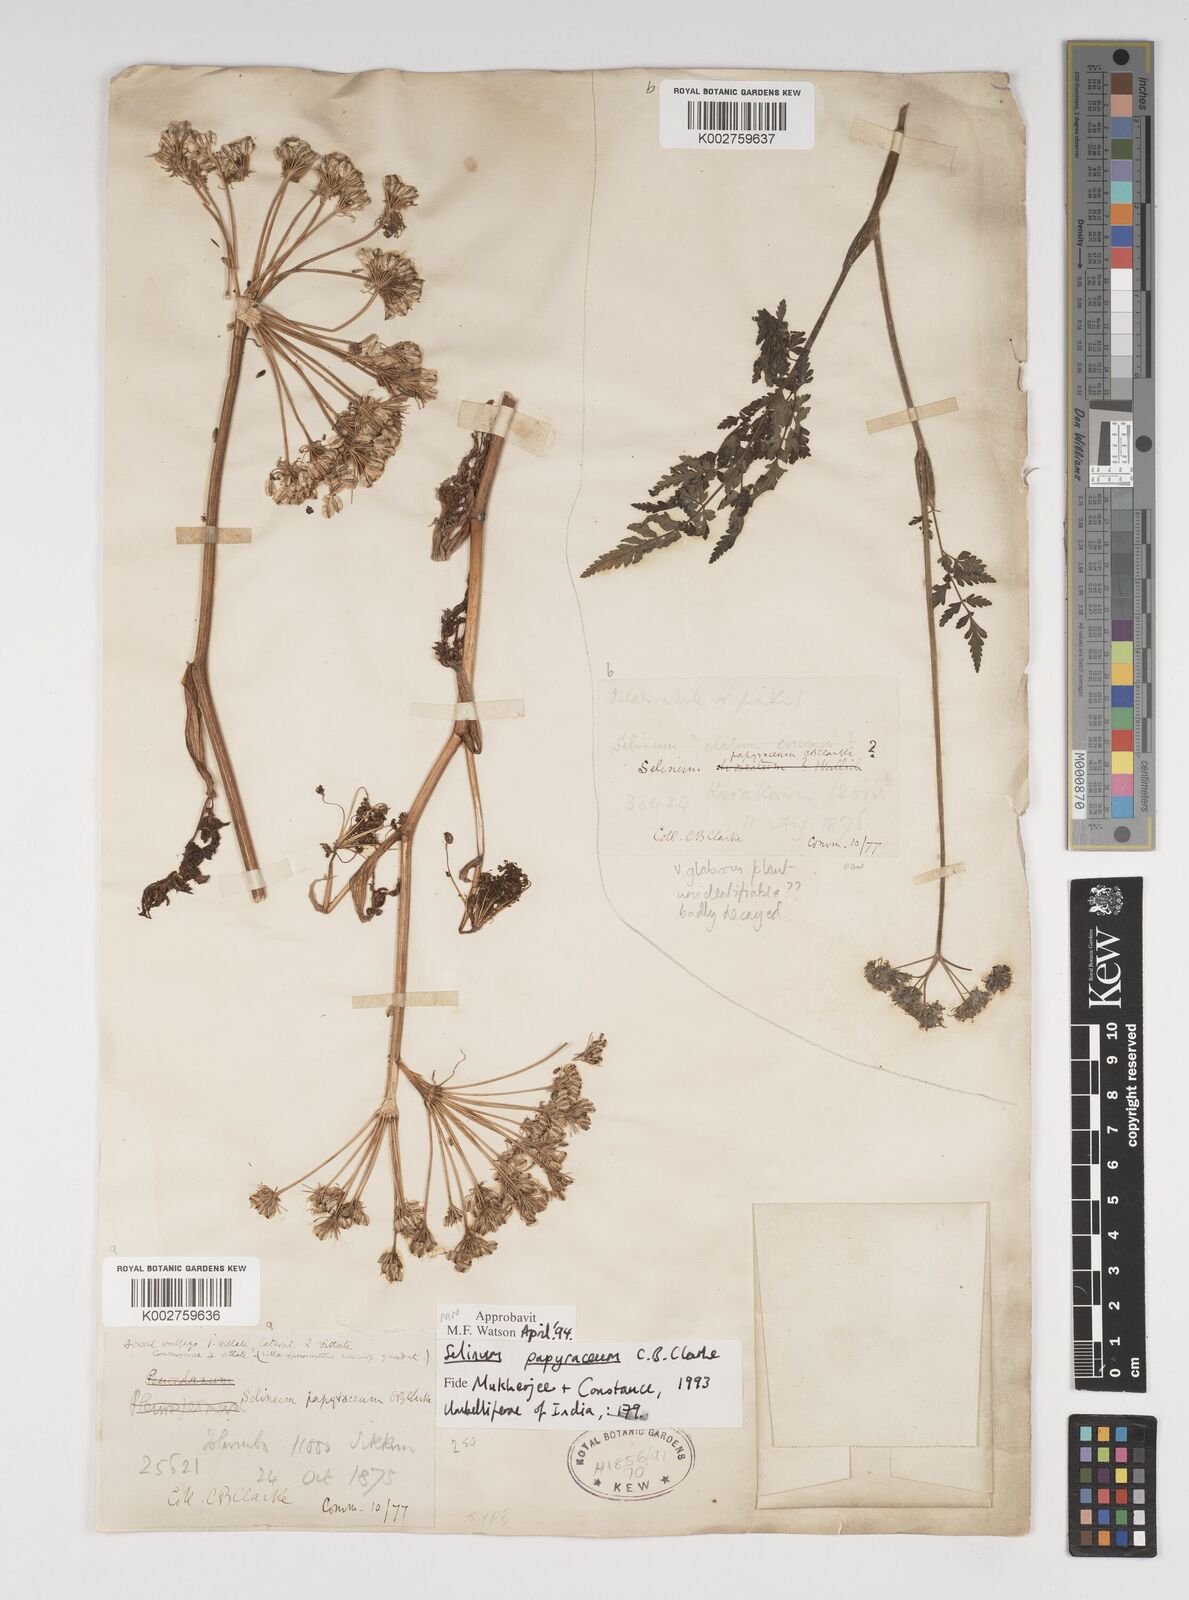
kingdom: Plantae
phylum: Tracheophyta
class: Magnoliopsida
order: Apiales
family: Apiaceae
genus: Conioselinum
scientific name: Conioselinum tataricum
